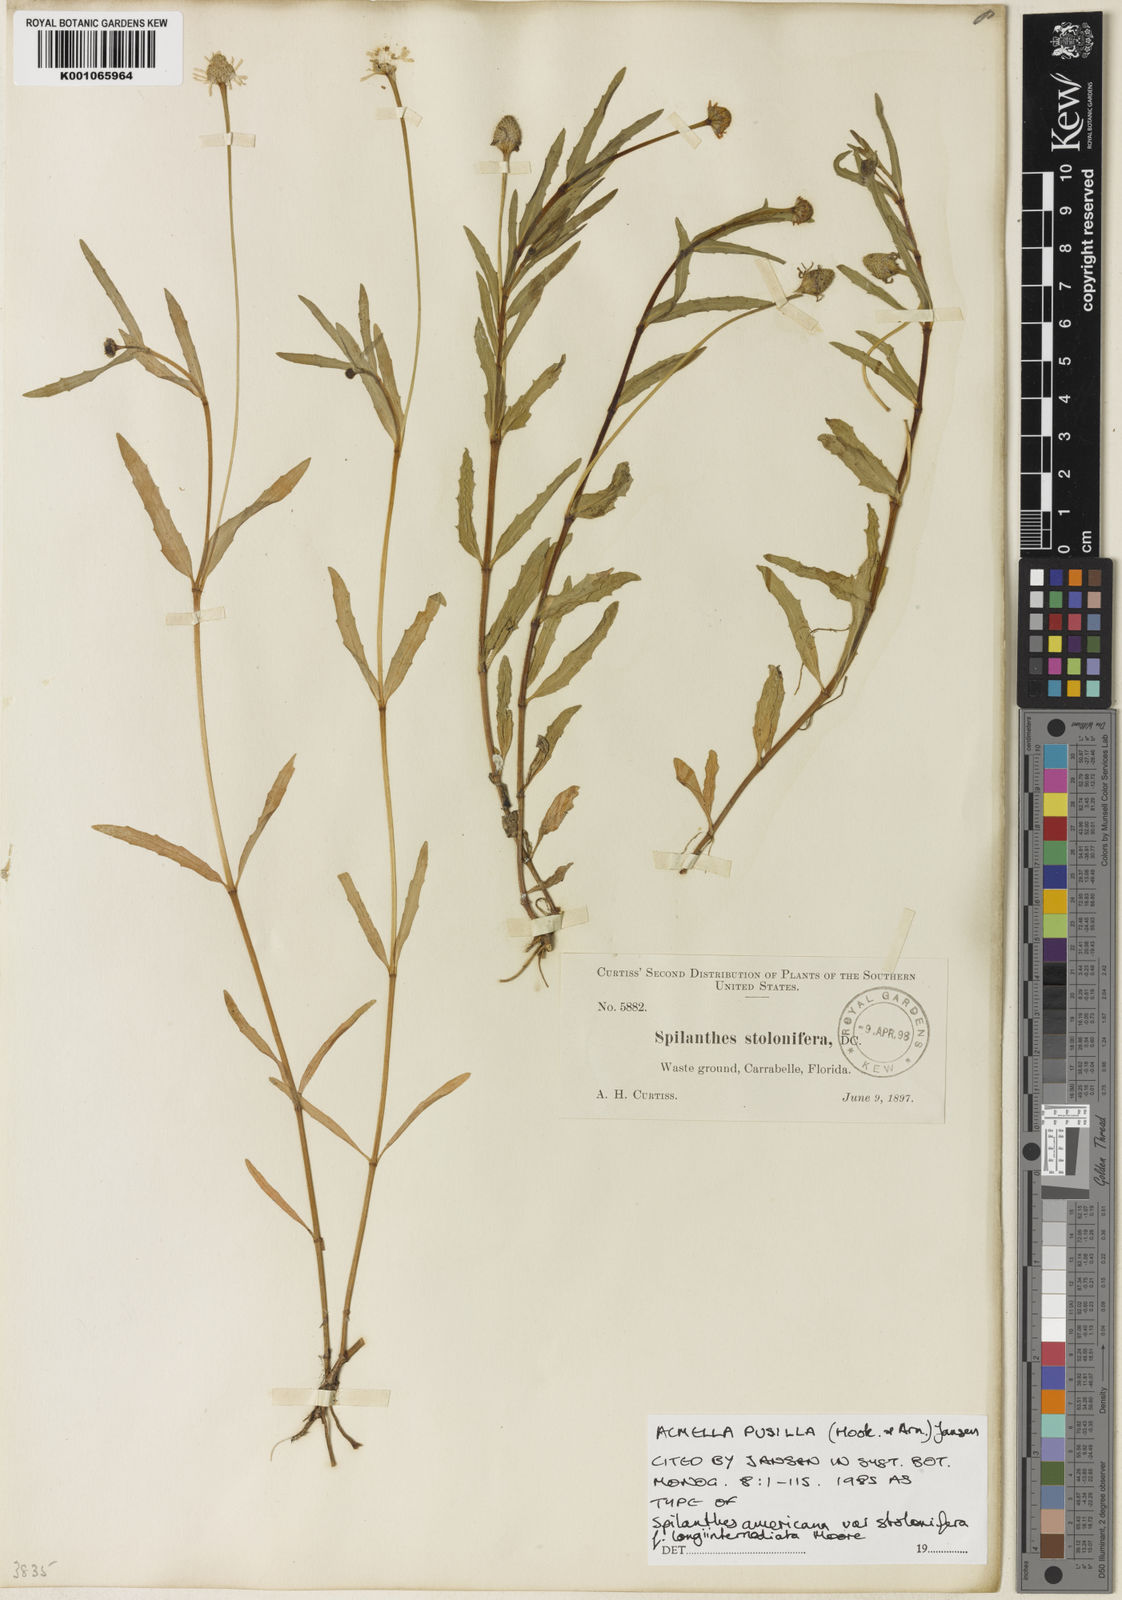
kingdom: Plantae
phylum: Tracheophyta
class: Magnoliopsida
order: Asterales
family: Asteraceae
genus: Acmella
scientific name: Acmella pusilla
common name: Dwarf spotflower
